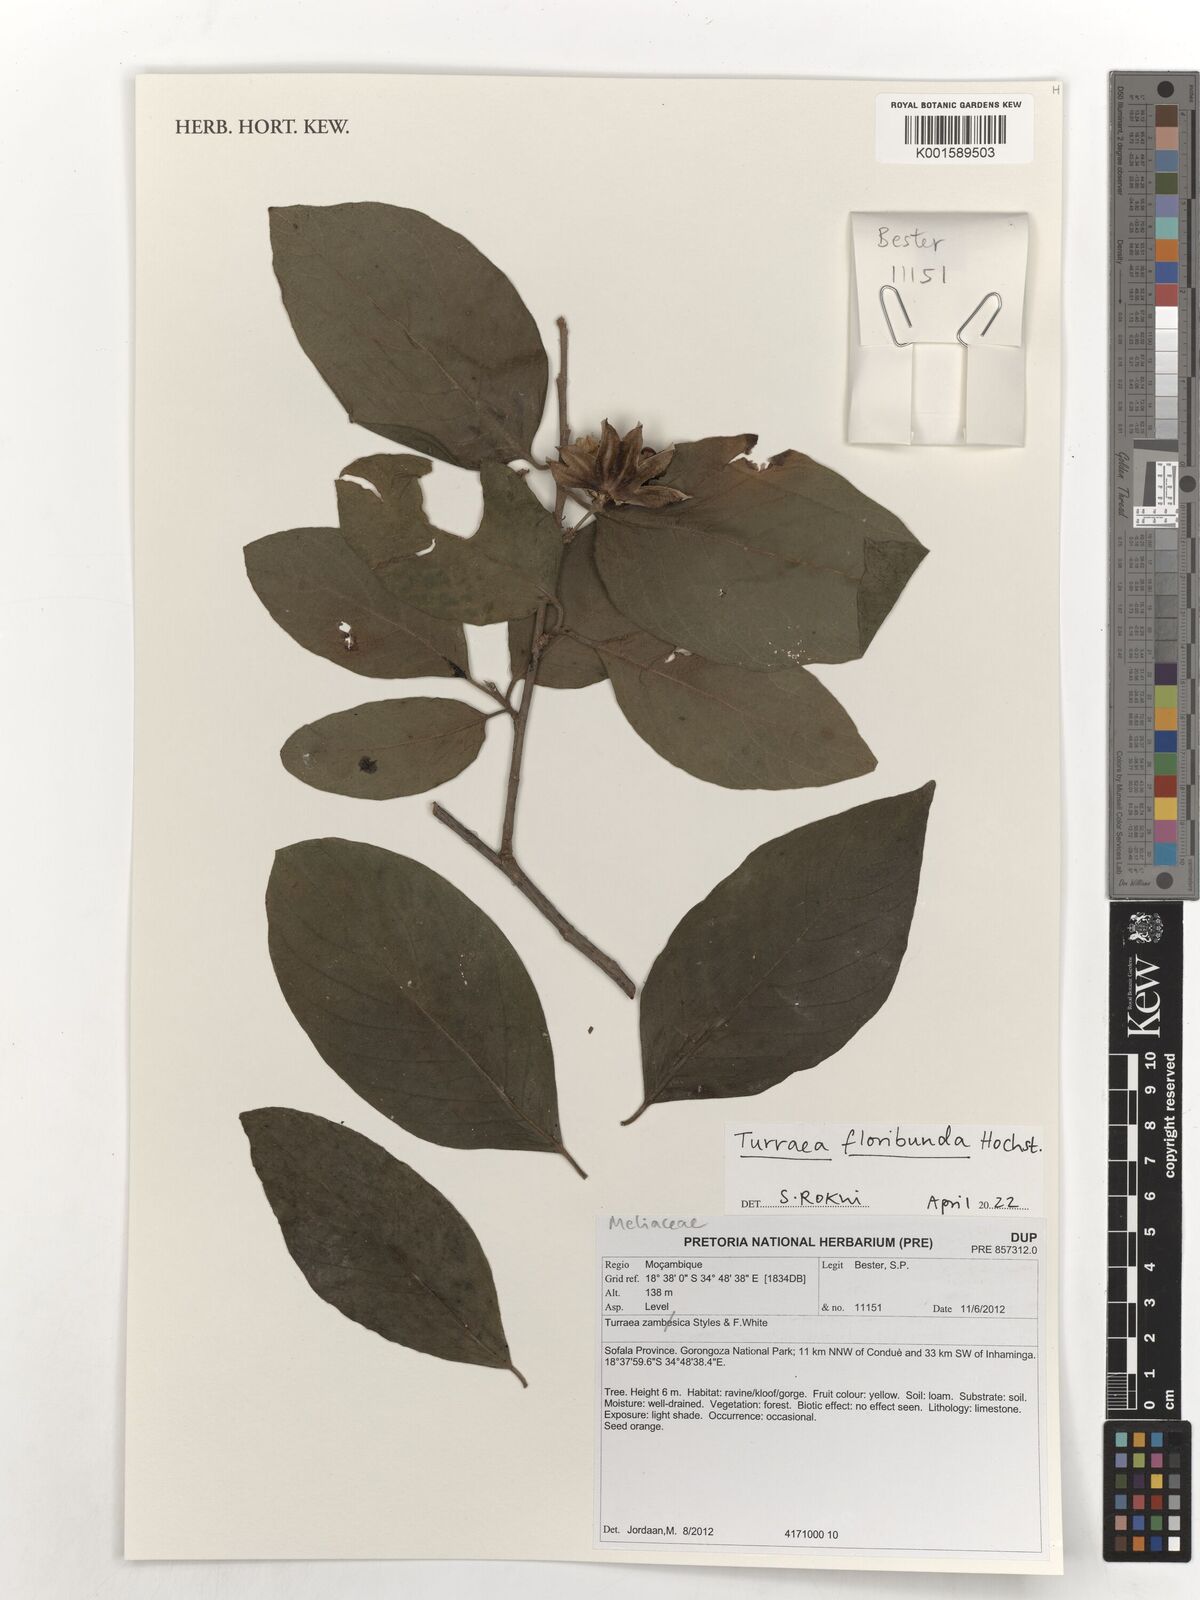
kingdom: Plantae
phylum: Tracheophyta
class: Magnoliopsida
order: Sapindales
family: Meliaceae
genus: Turraea
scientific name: Turraea floribunda
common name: Honeysuckle tree
